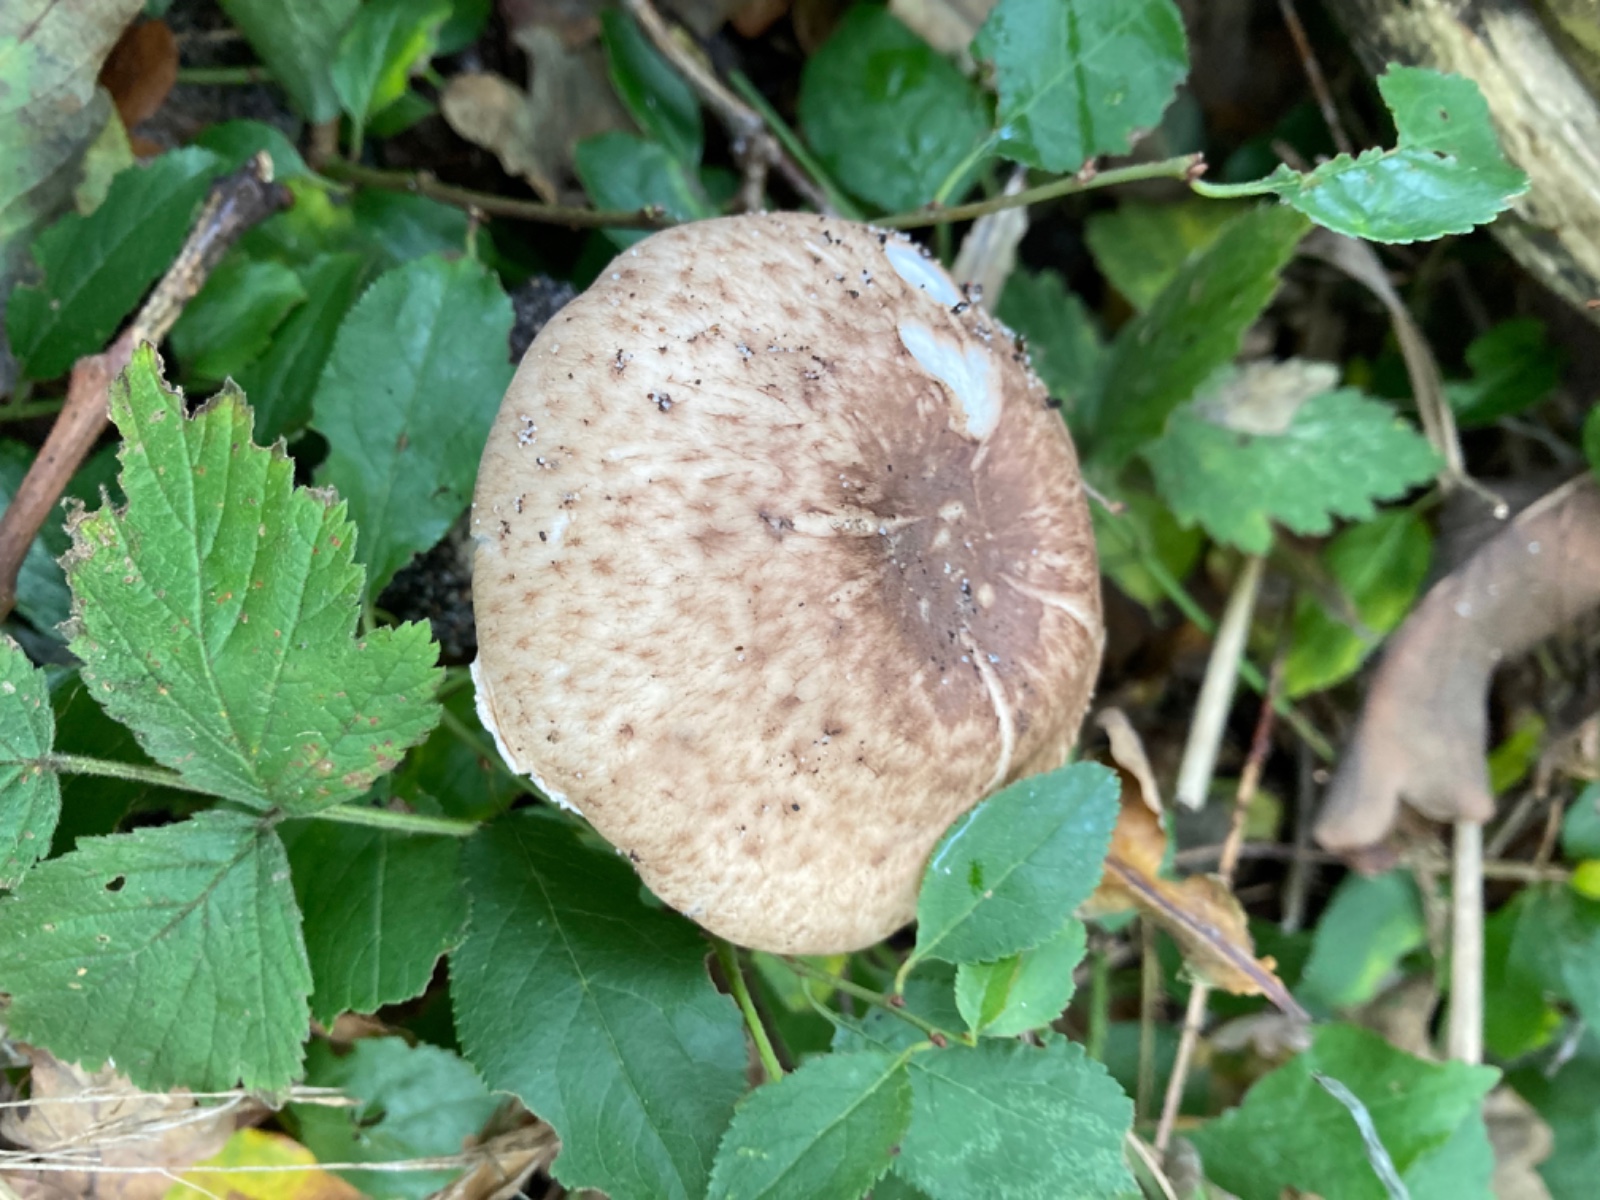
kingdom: Fungi
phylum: Basidiomycota
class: Agaricomycetes
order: Agaricales
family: Agaricaceae
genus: Agaricus
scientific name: Agaricus impudicus
